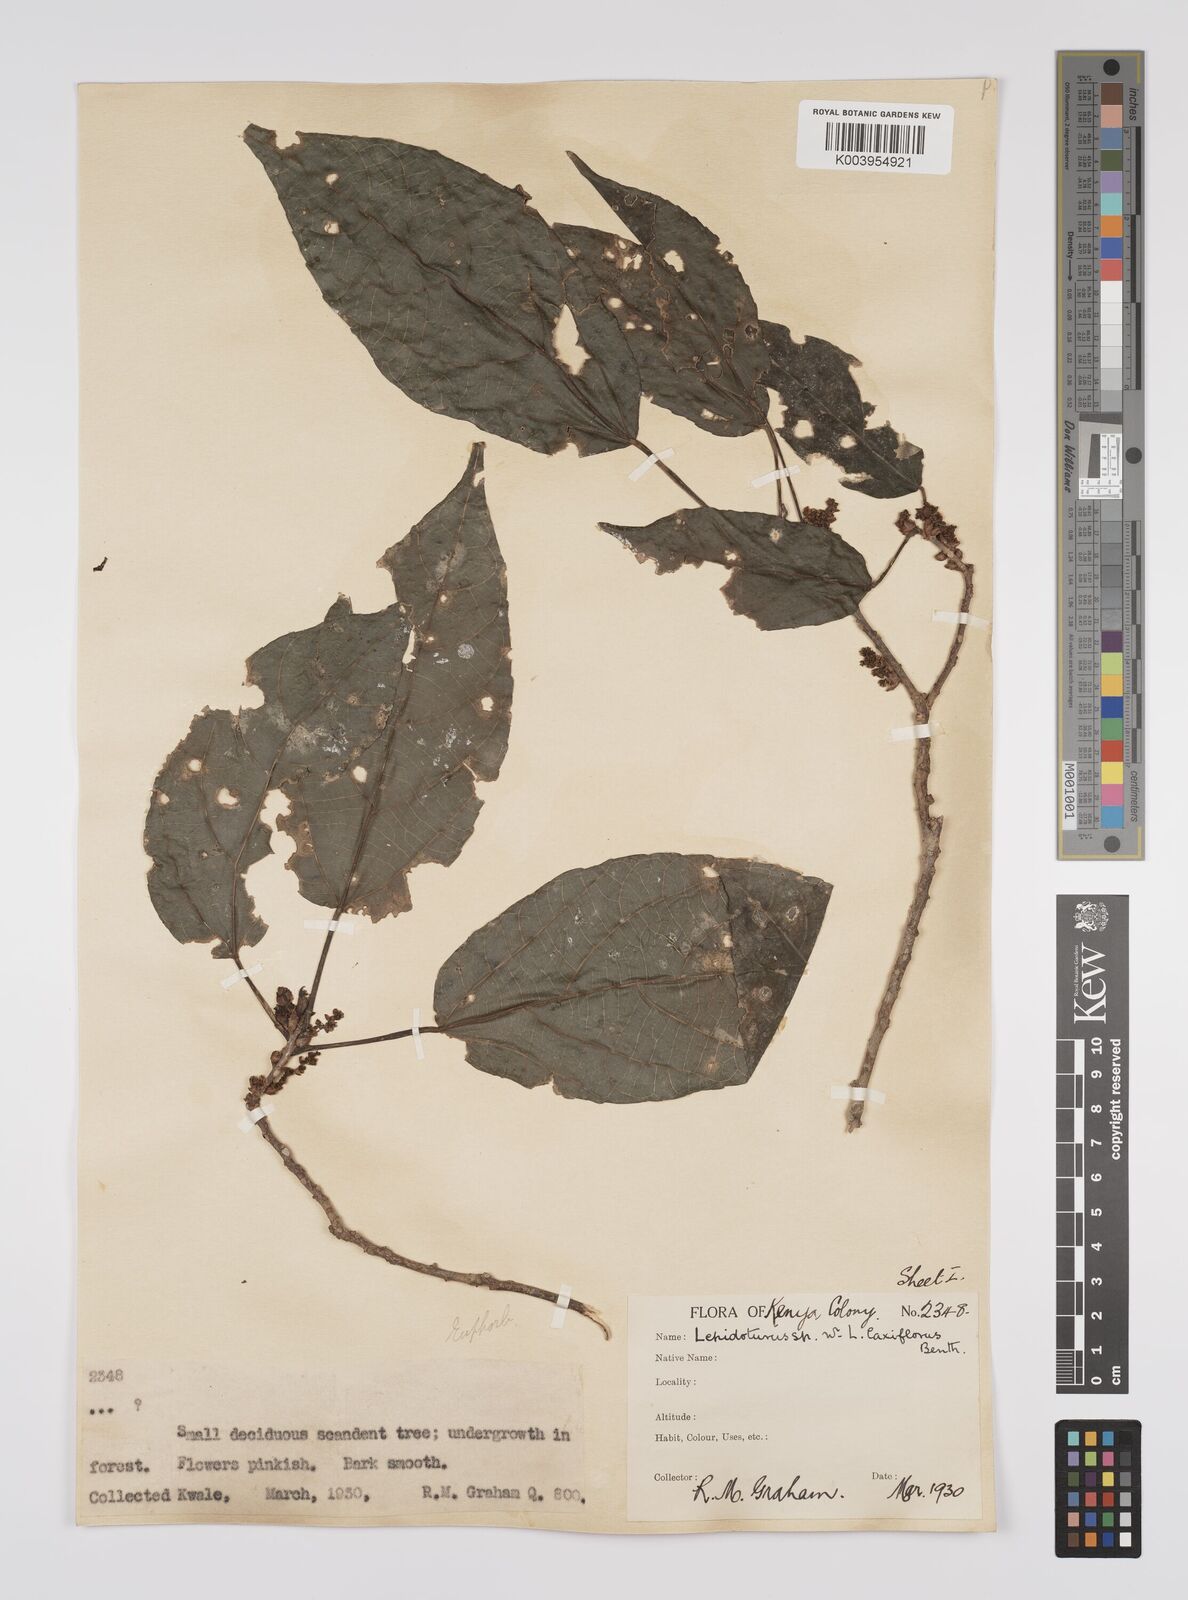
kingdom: Plantae
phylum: Tracheophyta
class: Magnoliopsida
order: Malpighiales
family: Euphorbiaceae
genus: Alchornea
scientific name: Alchornea laxiflora
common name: Lowveld bead-string
